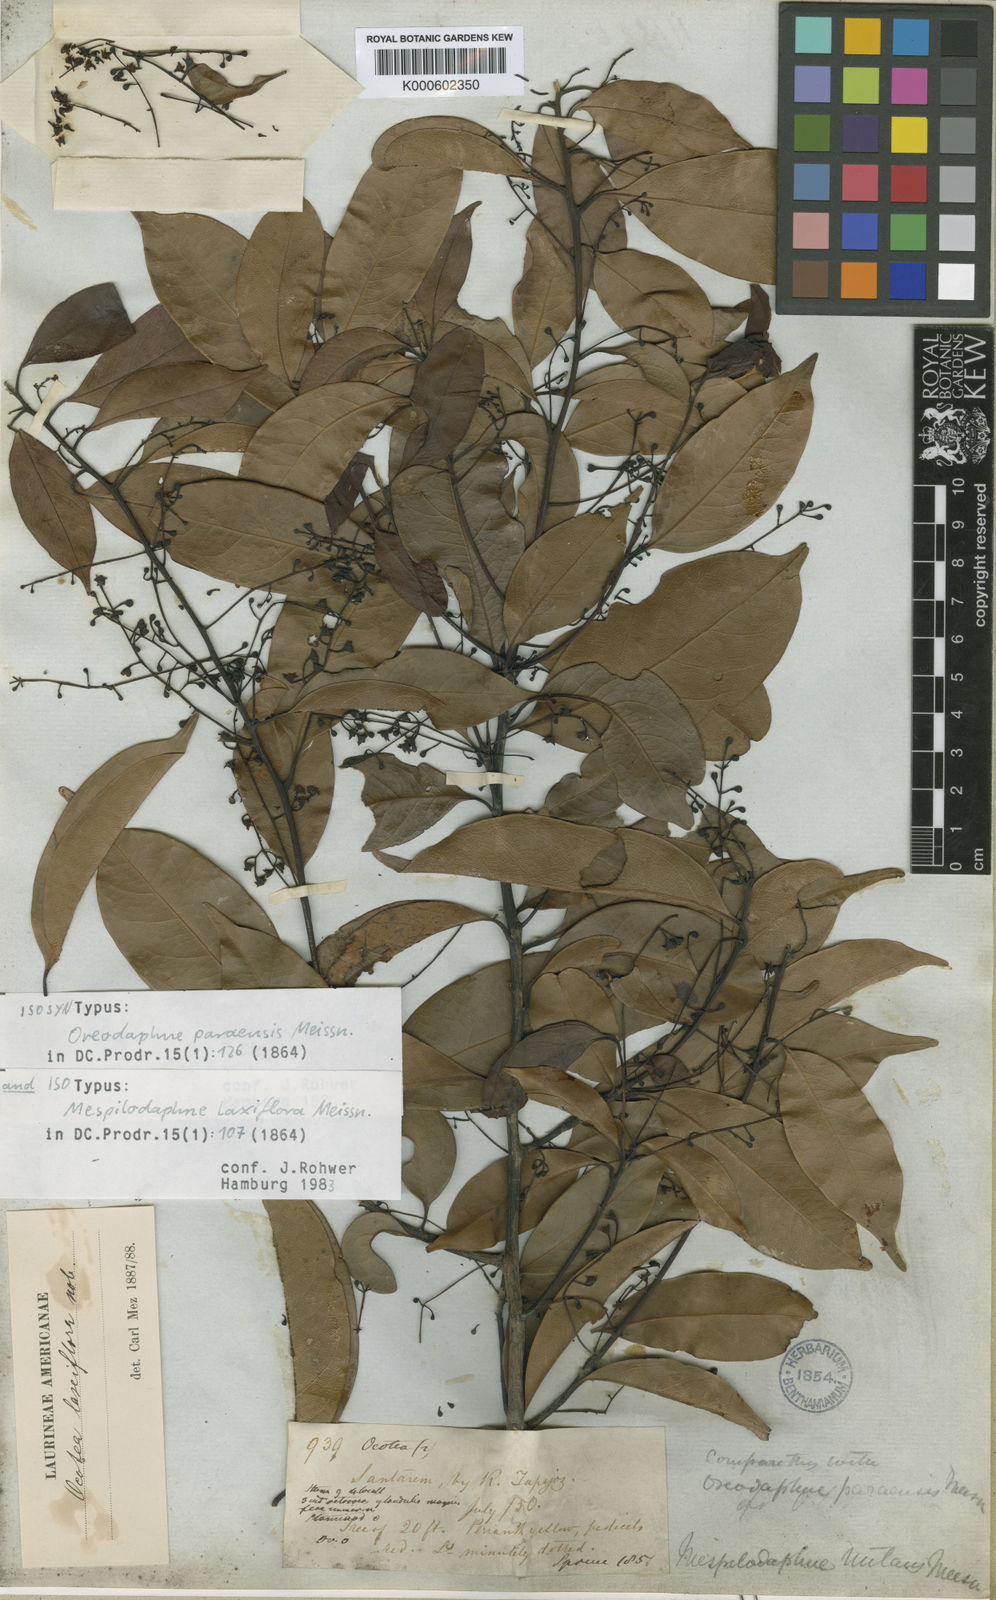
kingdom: Plantae
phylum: Tracheophyta
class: Magnoliopsida
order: Laurales
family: Lauraceae
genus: Ocotea
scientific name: Ocotea pauciflora
